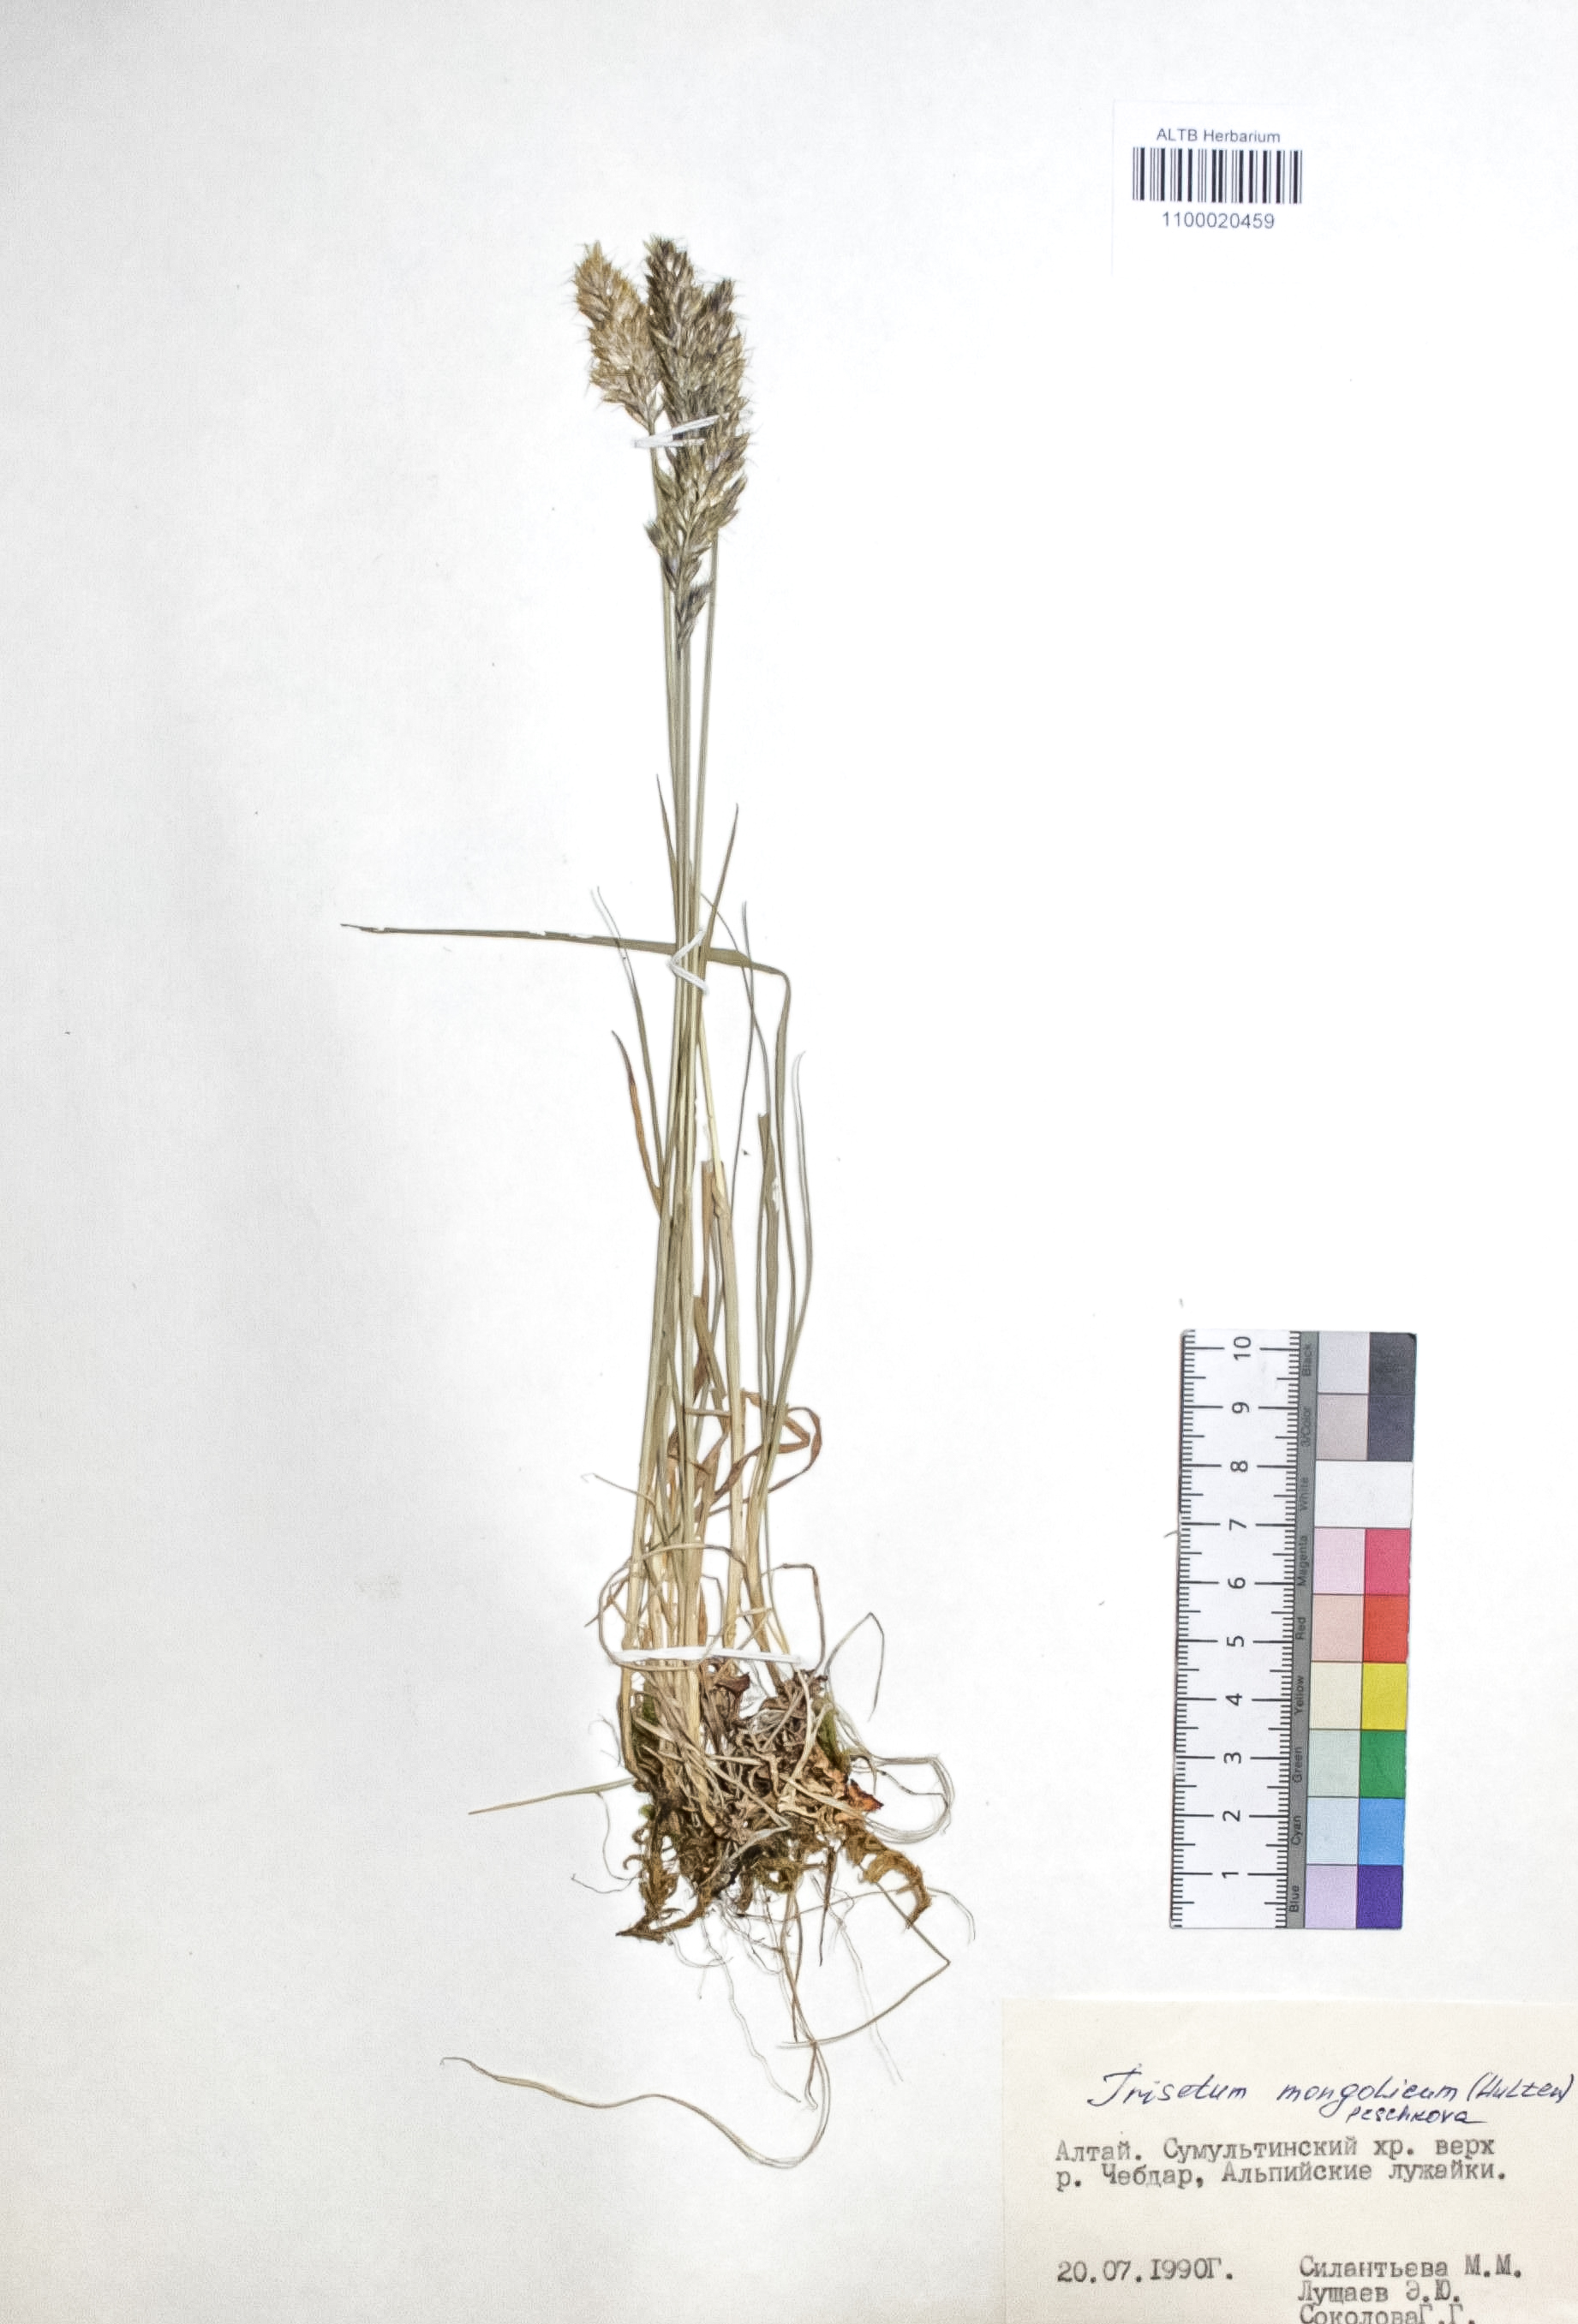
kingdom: Plantae
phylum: Tracheophyta
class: Liliopsida
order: Poales
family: Poaceae
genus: Koeleria
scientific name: Koeleria spicata
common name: Mountain trisetum
